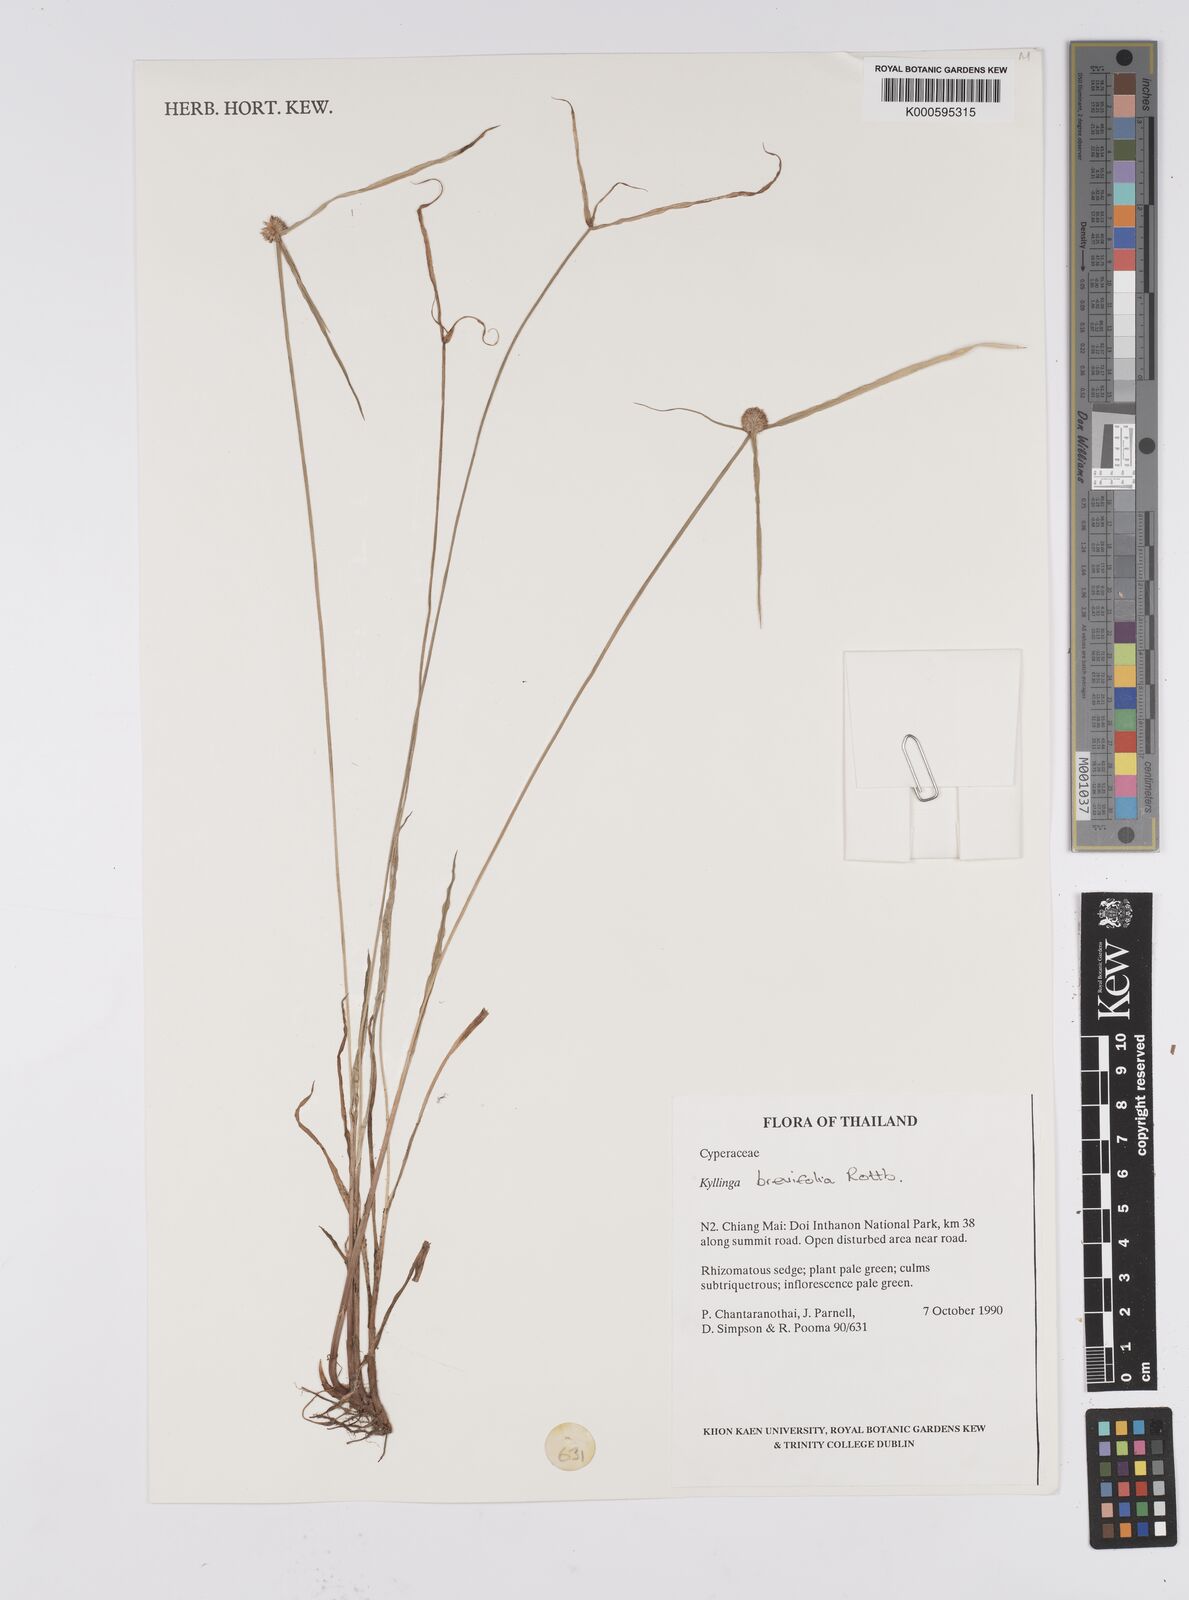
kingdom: Plantae
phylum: Tracheophyta
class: Liliopsida
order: Poales
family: Cyperaceae
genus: Cyperus
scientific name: Cyperus brevifolius
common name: Globe kyllinga
